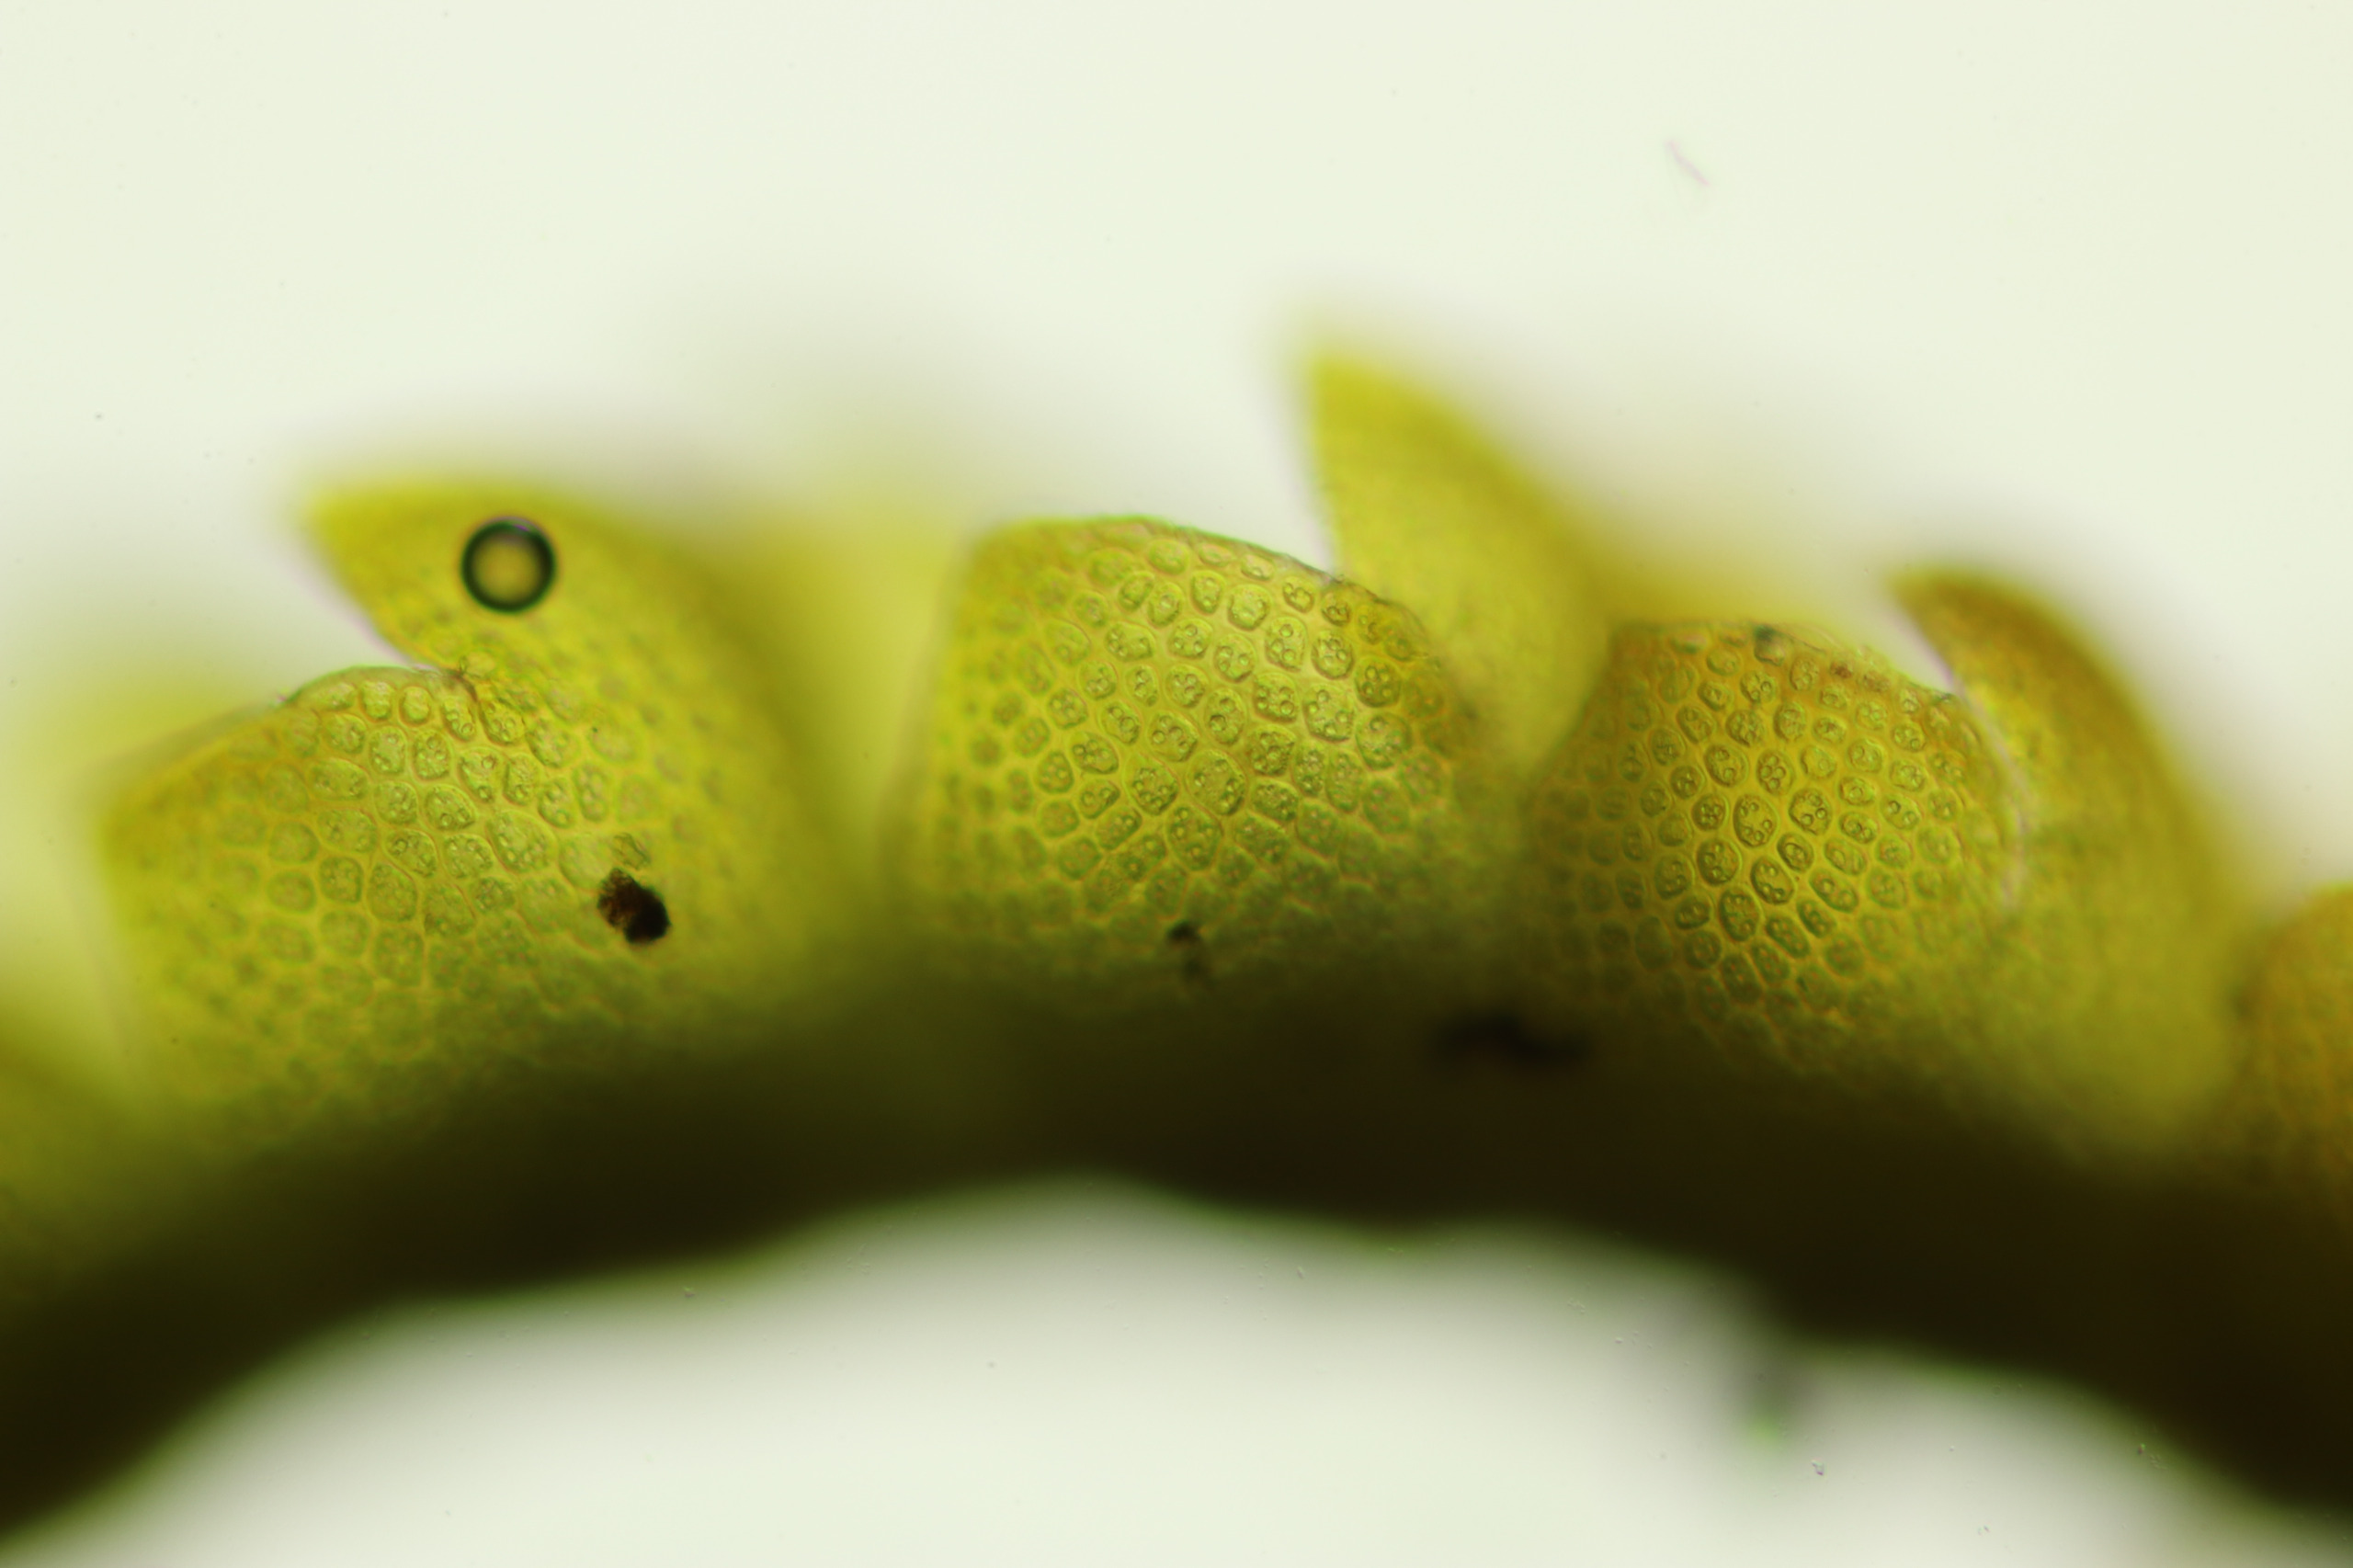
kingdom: Plantae
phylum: Marchantiophyta
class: Jungermanniopsida
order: Jungermanniales
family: Anastrophyllaceae
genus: Sphenolobus
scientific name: Sphenolobus minutus
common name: Liden rendeblad
